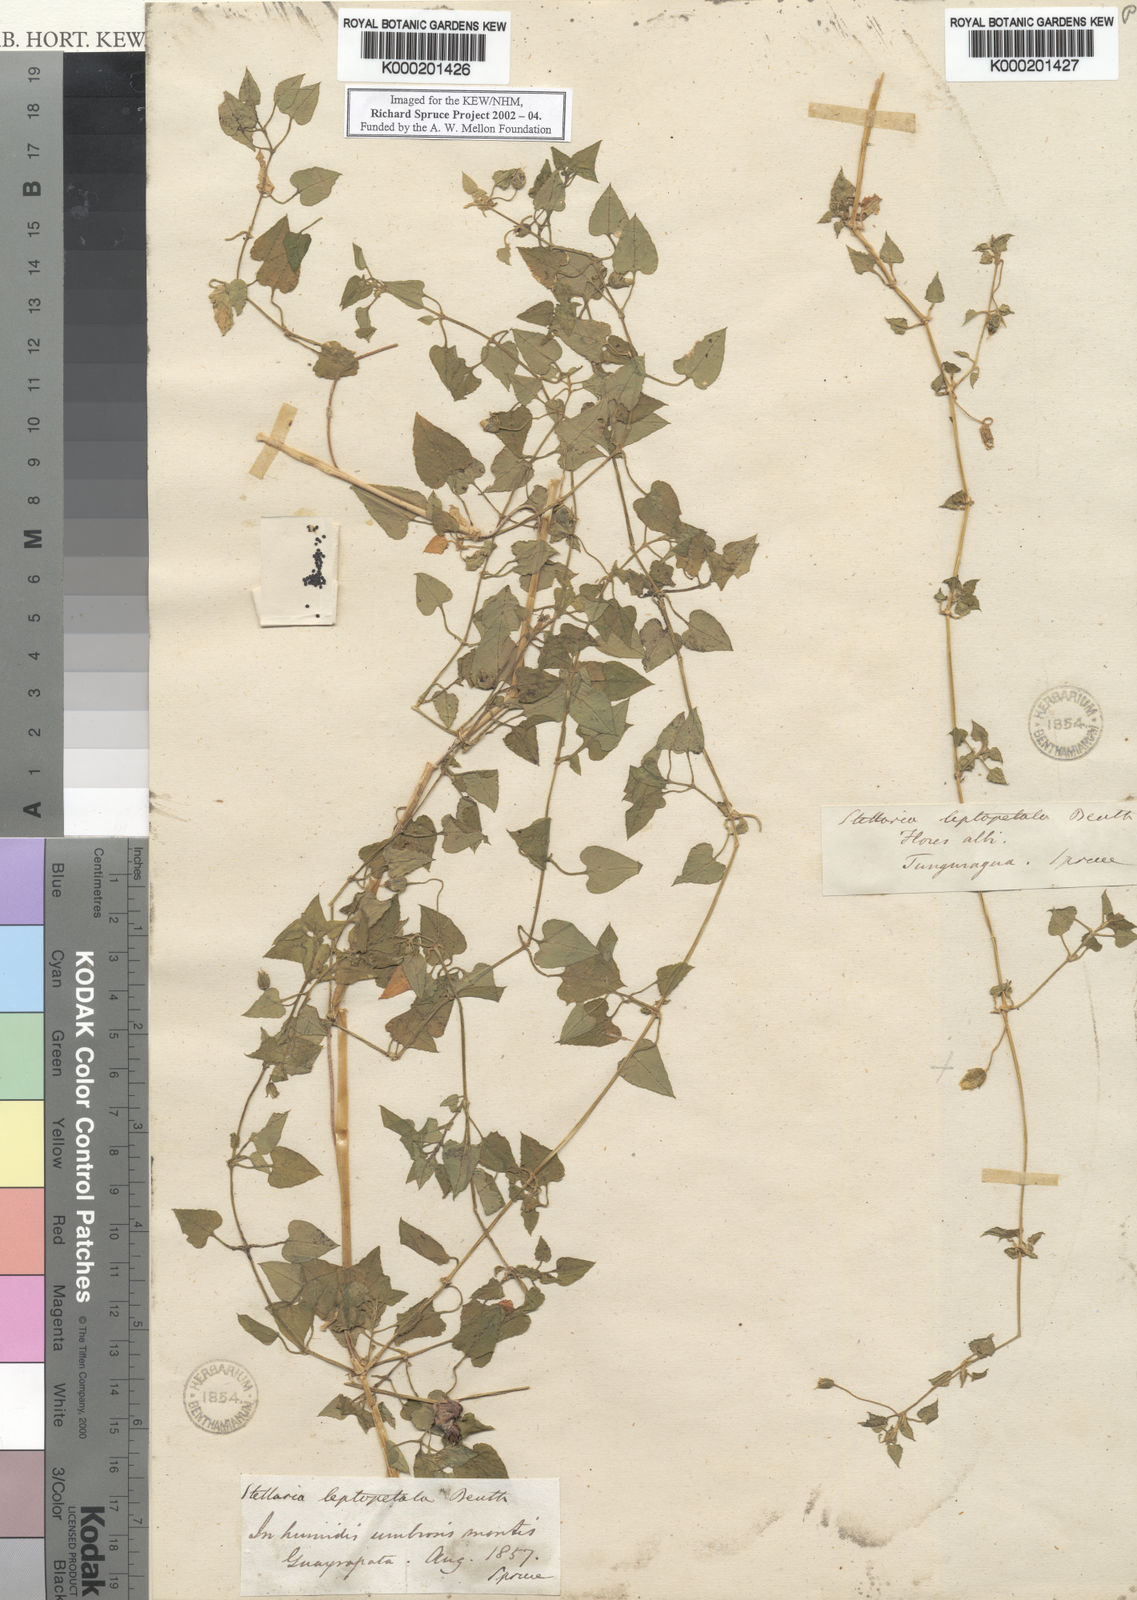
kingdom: Plantae
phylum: Tracheophyta
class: Magnoliopsida
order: Caryophyllales
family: Caryophyllaceae
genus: Stellaria
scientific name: Stellaria cuspidata
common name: Mexican chickweed
